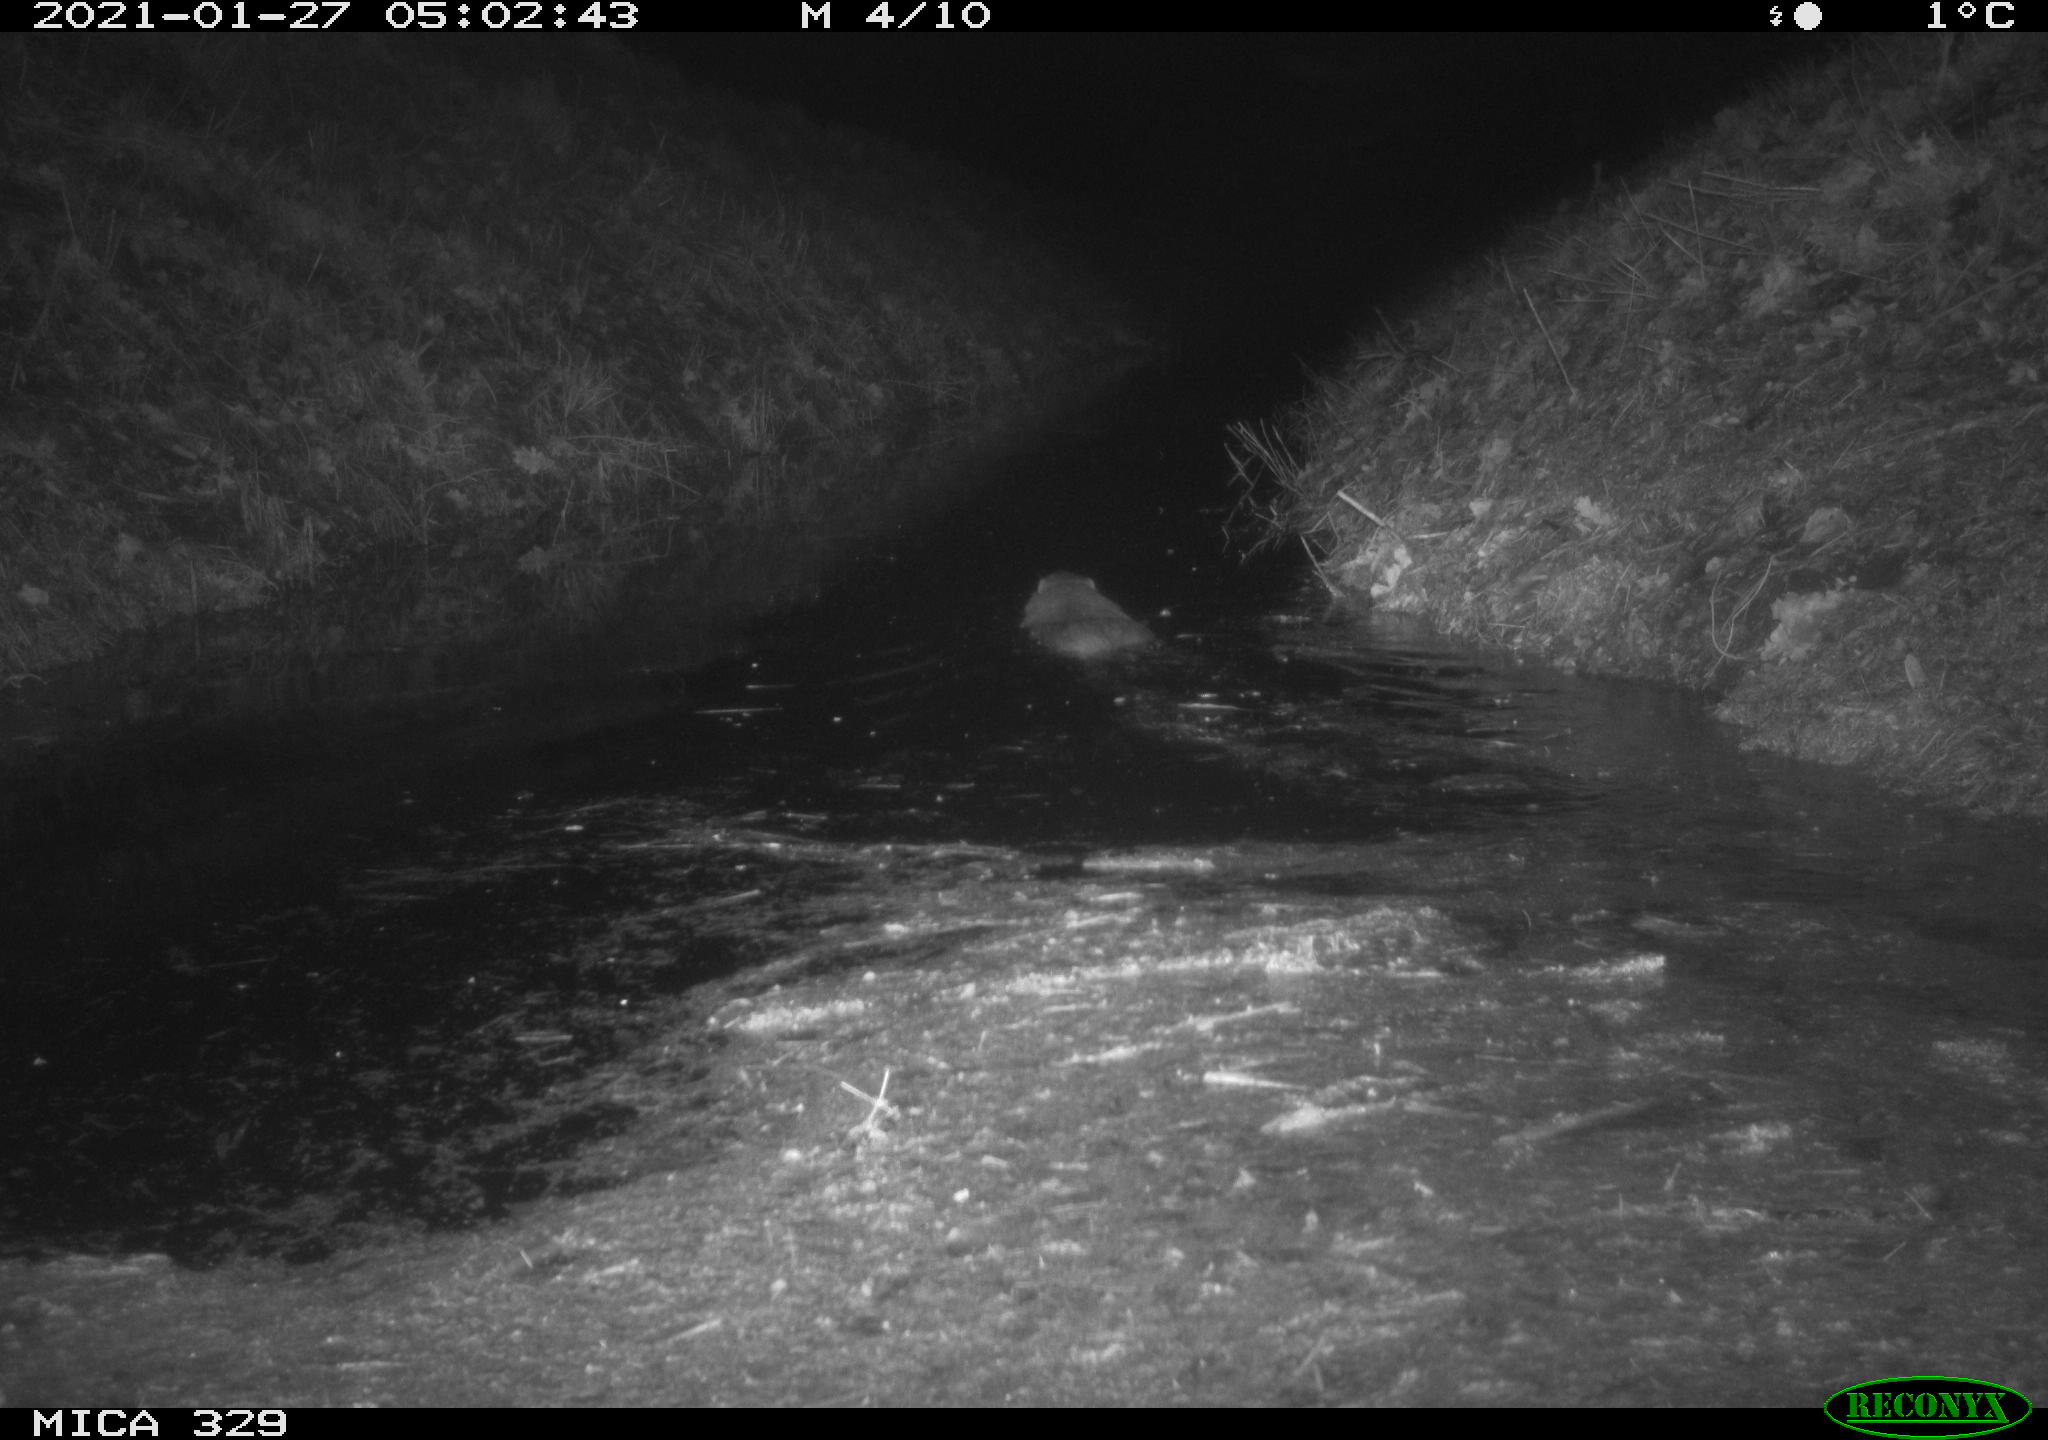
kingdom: Animalia
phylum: Chordata
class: Mammalia
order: Rodentia
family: Myocastoridae
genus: Myocastor
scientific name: Myocastor coypus
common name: Coypu
